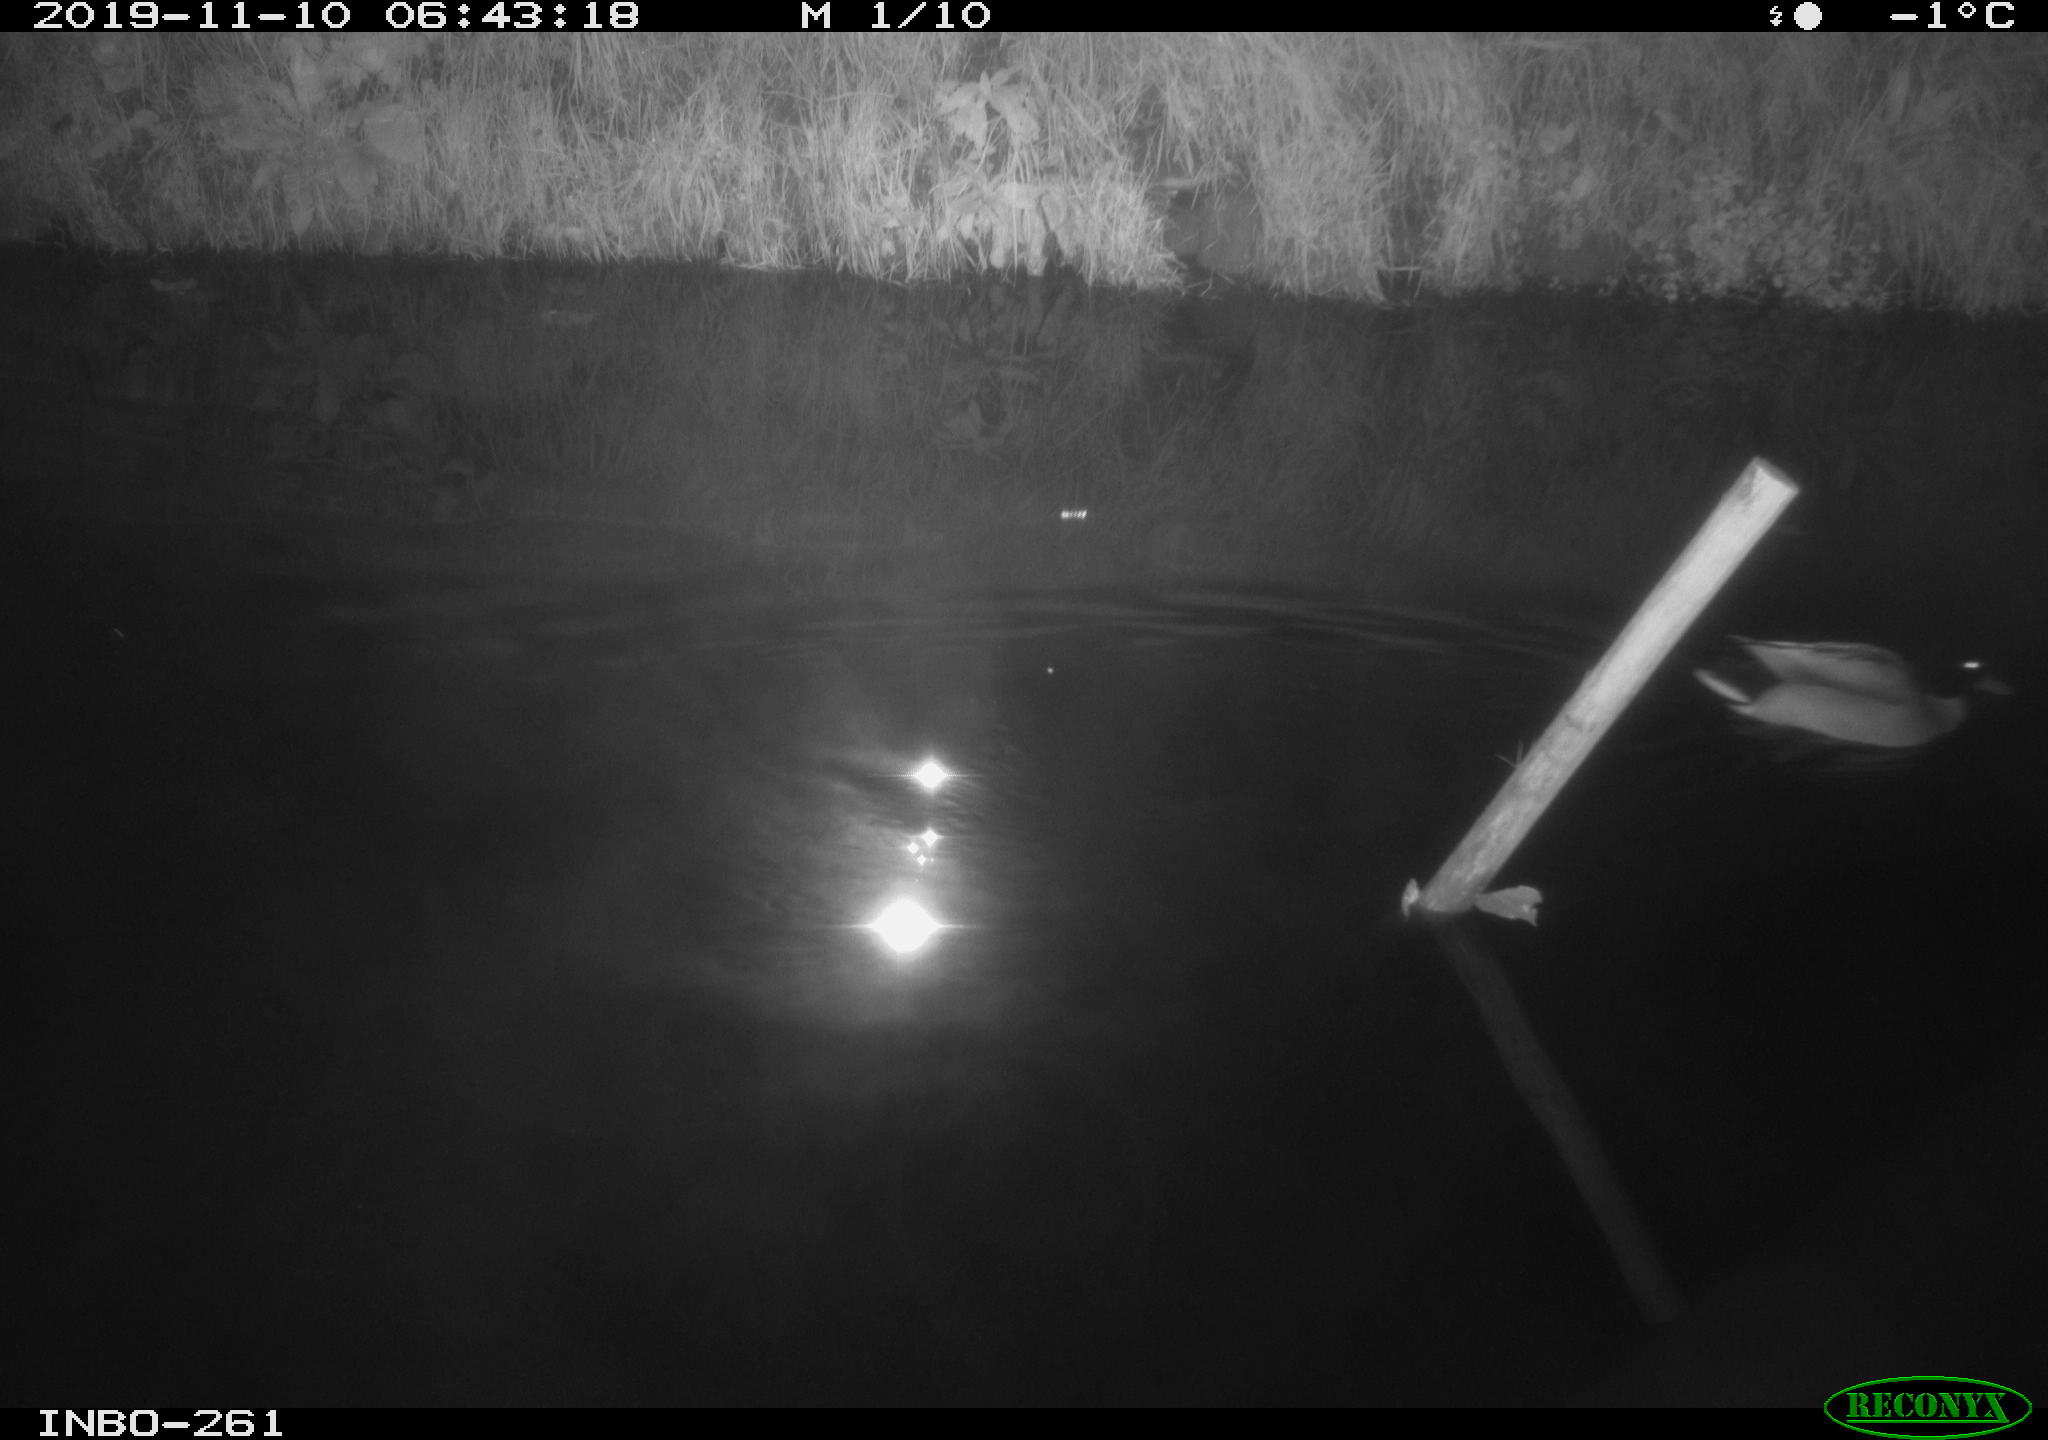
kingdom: Animalia
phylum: Chordata
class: Aves
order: Anseriformes
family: Anatidae
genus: Anas
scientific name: Anas platyrhynchos
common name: Mallard
